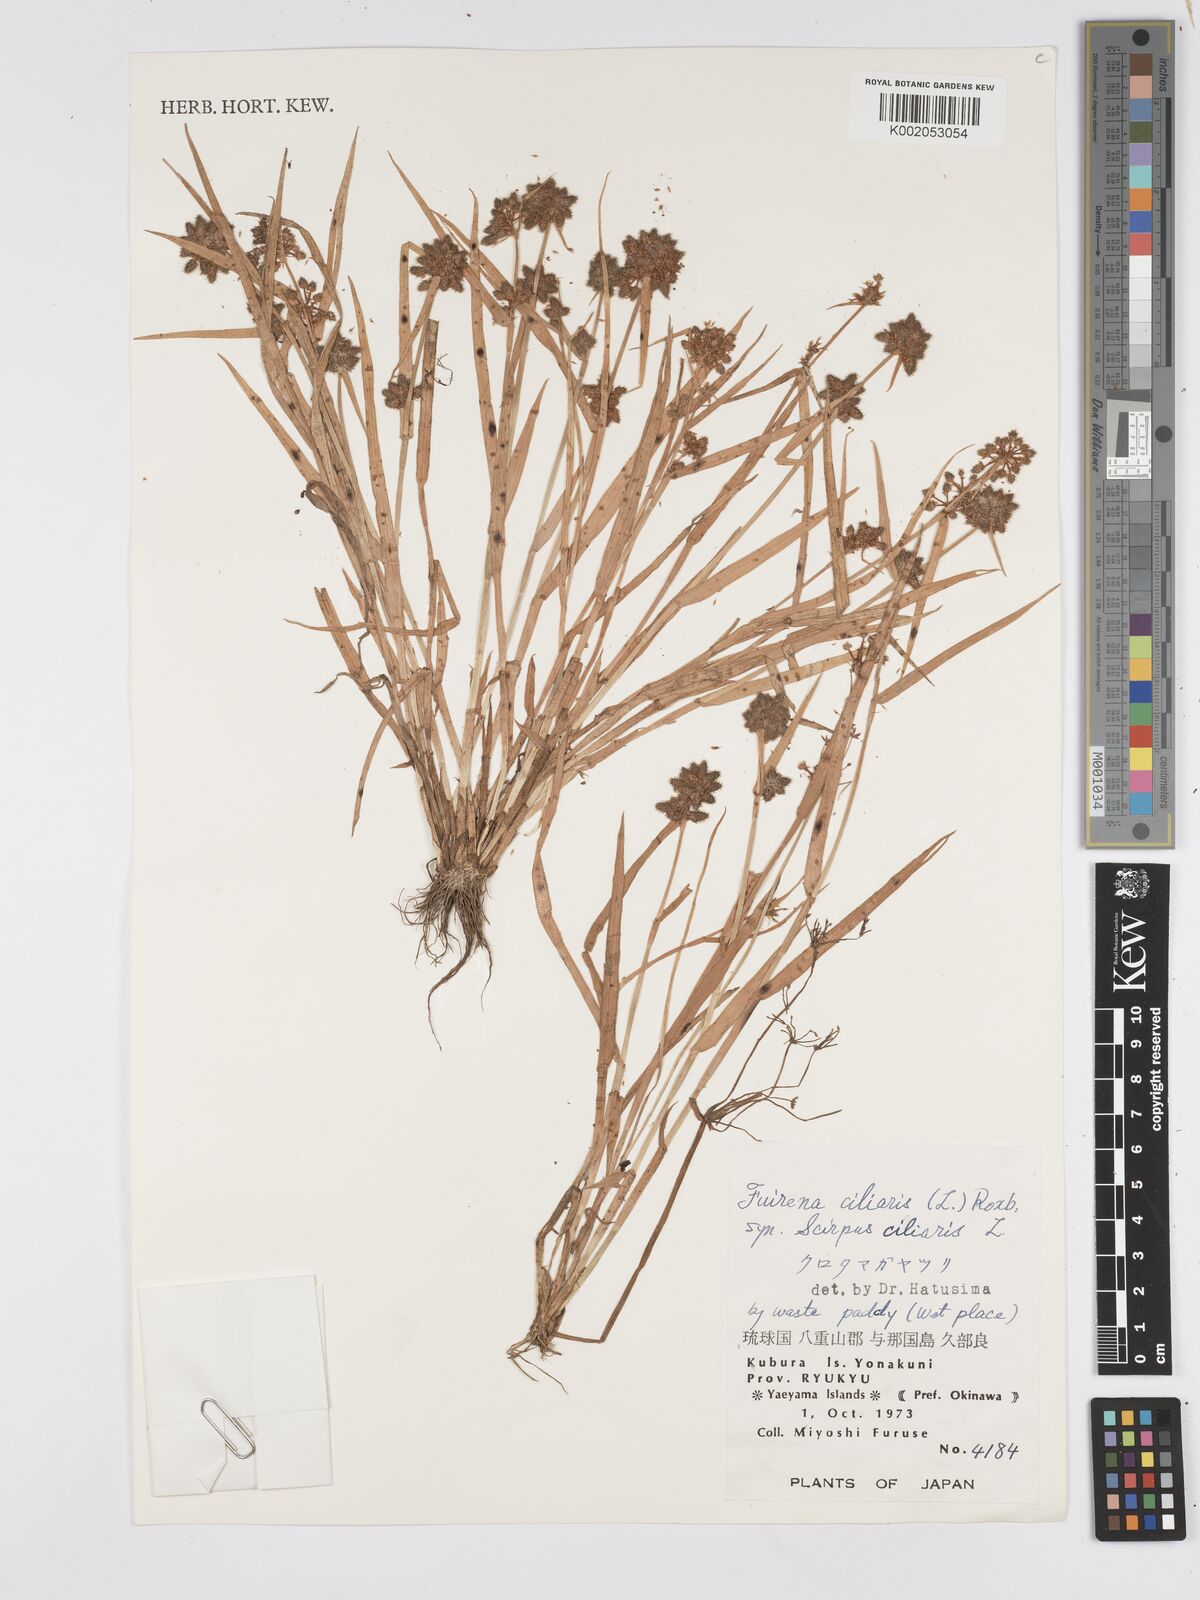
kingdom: Plantae
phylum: Tracheophyta
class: Liliopsida
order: Poales
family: Cyperaceae
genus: Fuirena
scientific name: Fuirena ciliaris
